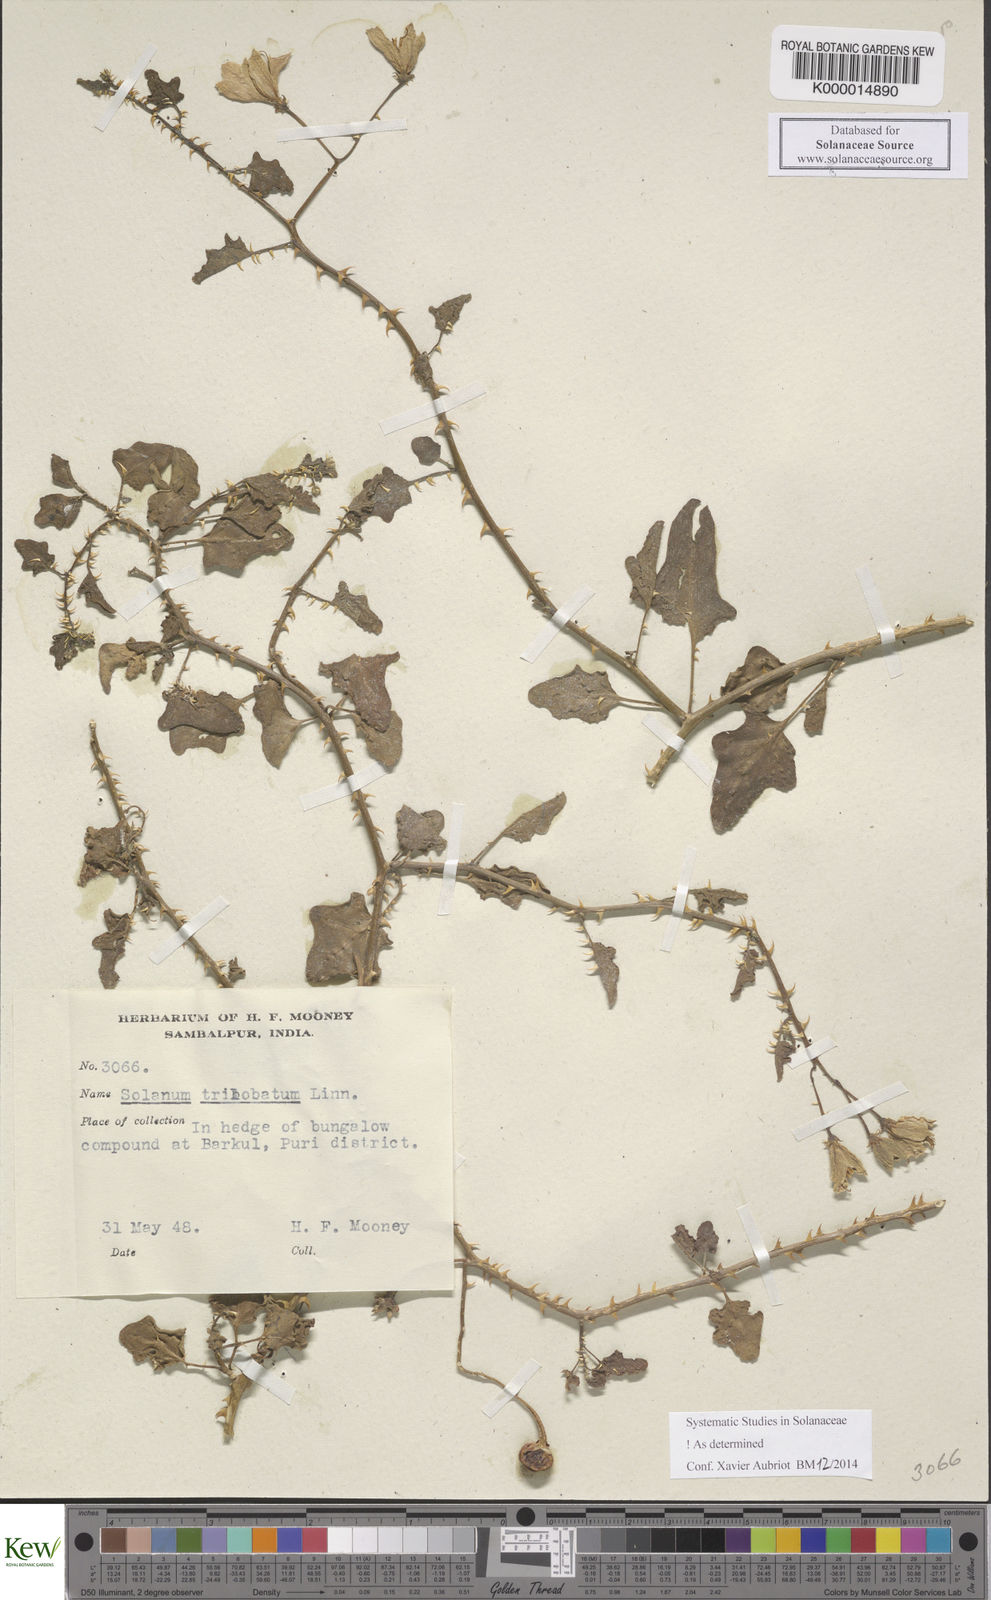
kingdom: Plantae
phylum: Tracheophyta
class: Magnoliopsida
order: Solanales
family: Solanaceae
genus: Solanum
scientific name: Solanum trilobatum
